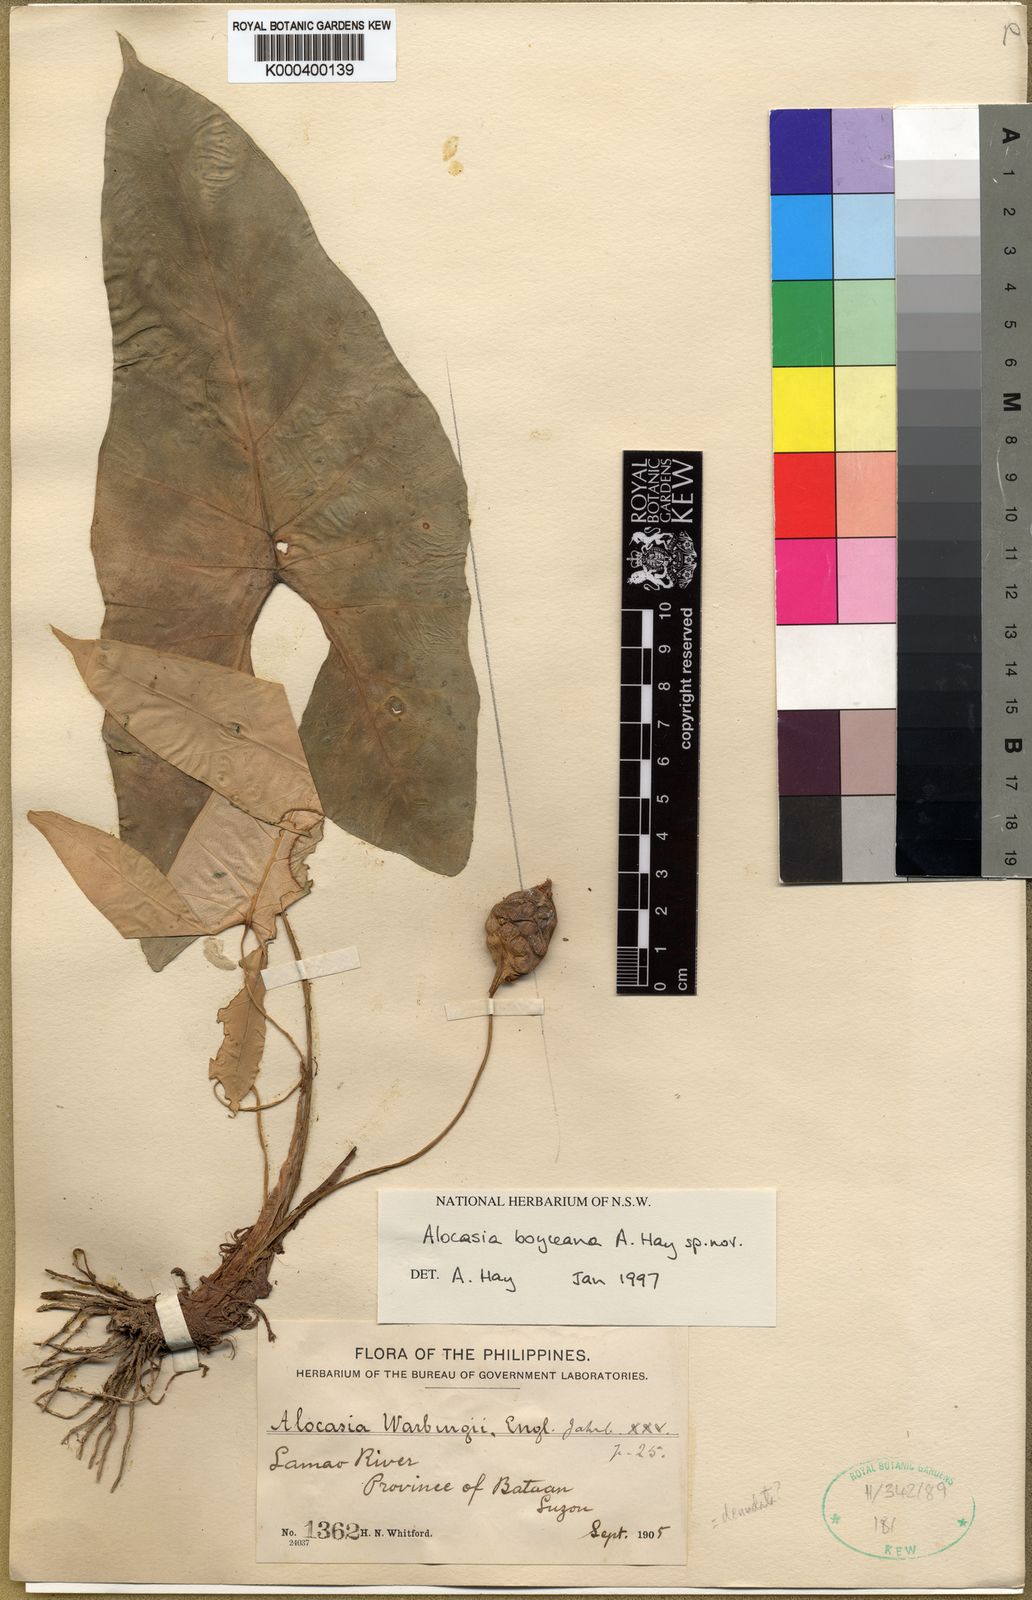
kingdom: Plantae
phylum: Tracheophyta
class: Liliopsida
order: Alismatales
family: Araceae
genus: Alocasia
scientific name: Alocasia boyceana
